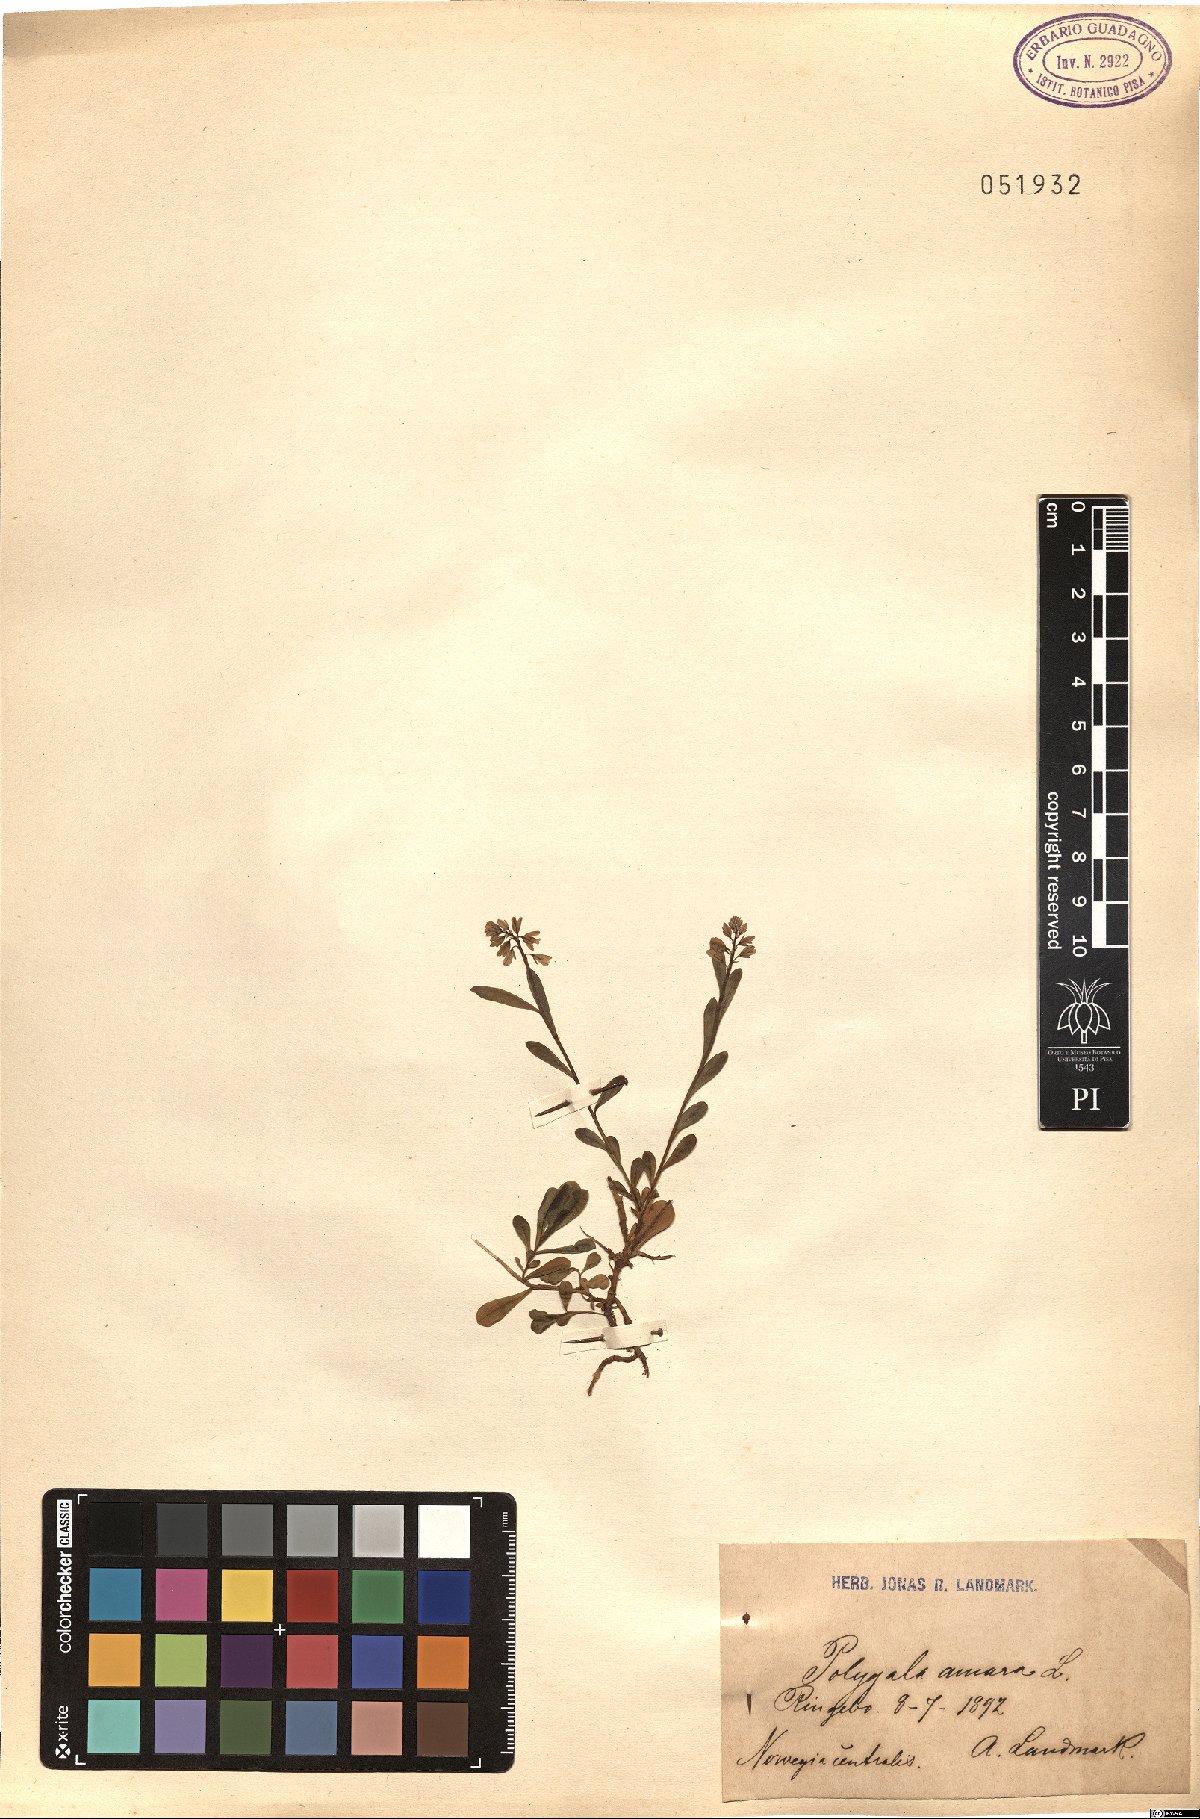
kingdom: Plantae
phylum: Tracheophyta
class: Magnoliopsida
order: Fabales
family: Polygalaceae
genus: Polygala
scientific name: Polygala amara
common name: Milkwort
